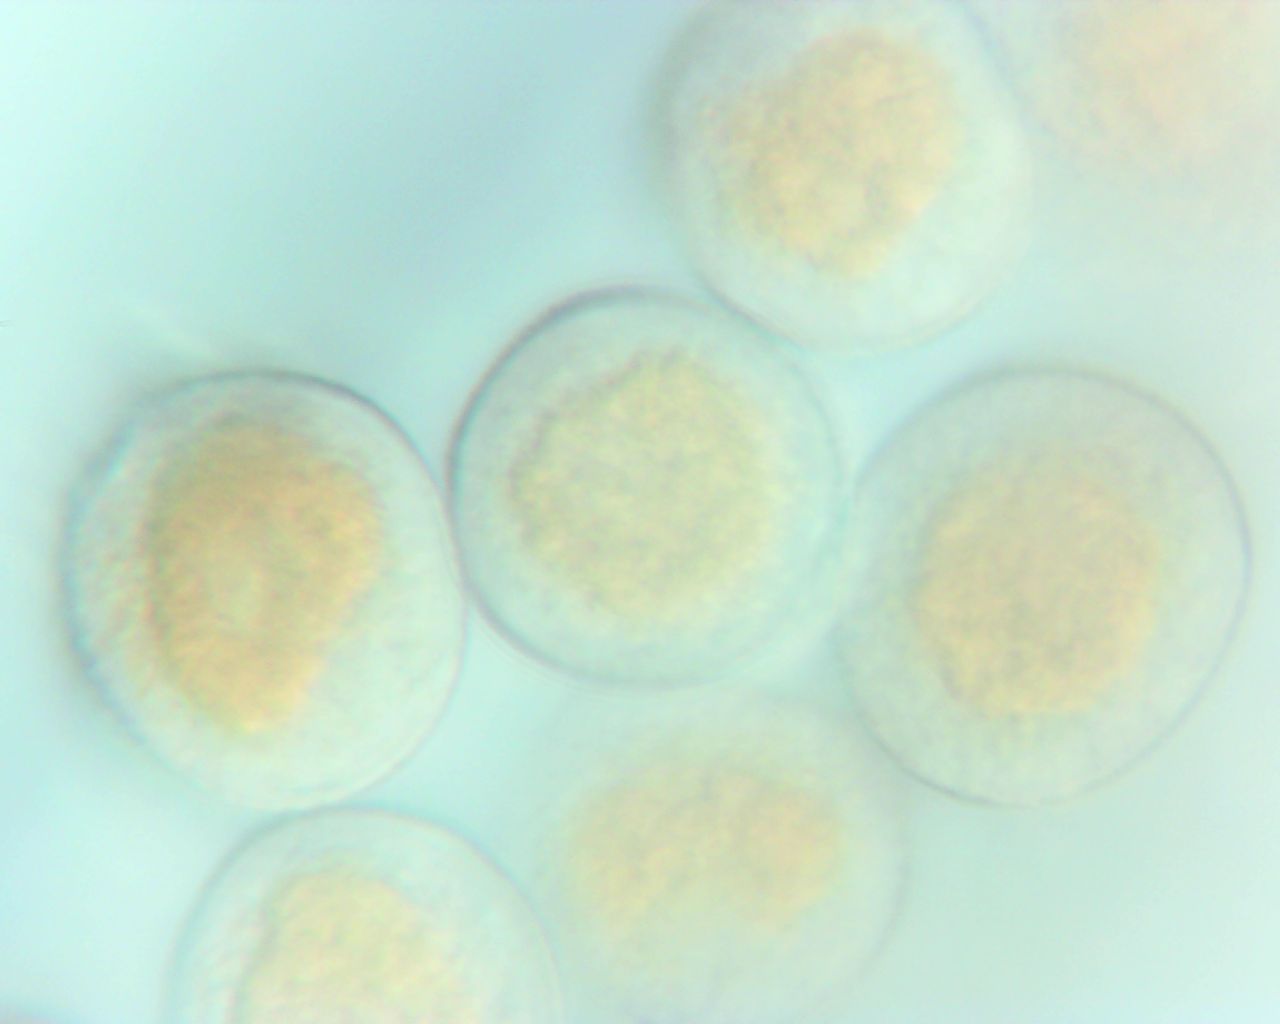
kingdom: Fungi
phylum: Basidiomycota
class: Pucciniomycetes
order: Pucciniales
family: Pucciniaceae
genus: Puccinia
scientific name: Puccinia
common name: tvecellerust
